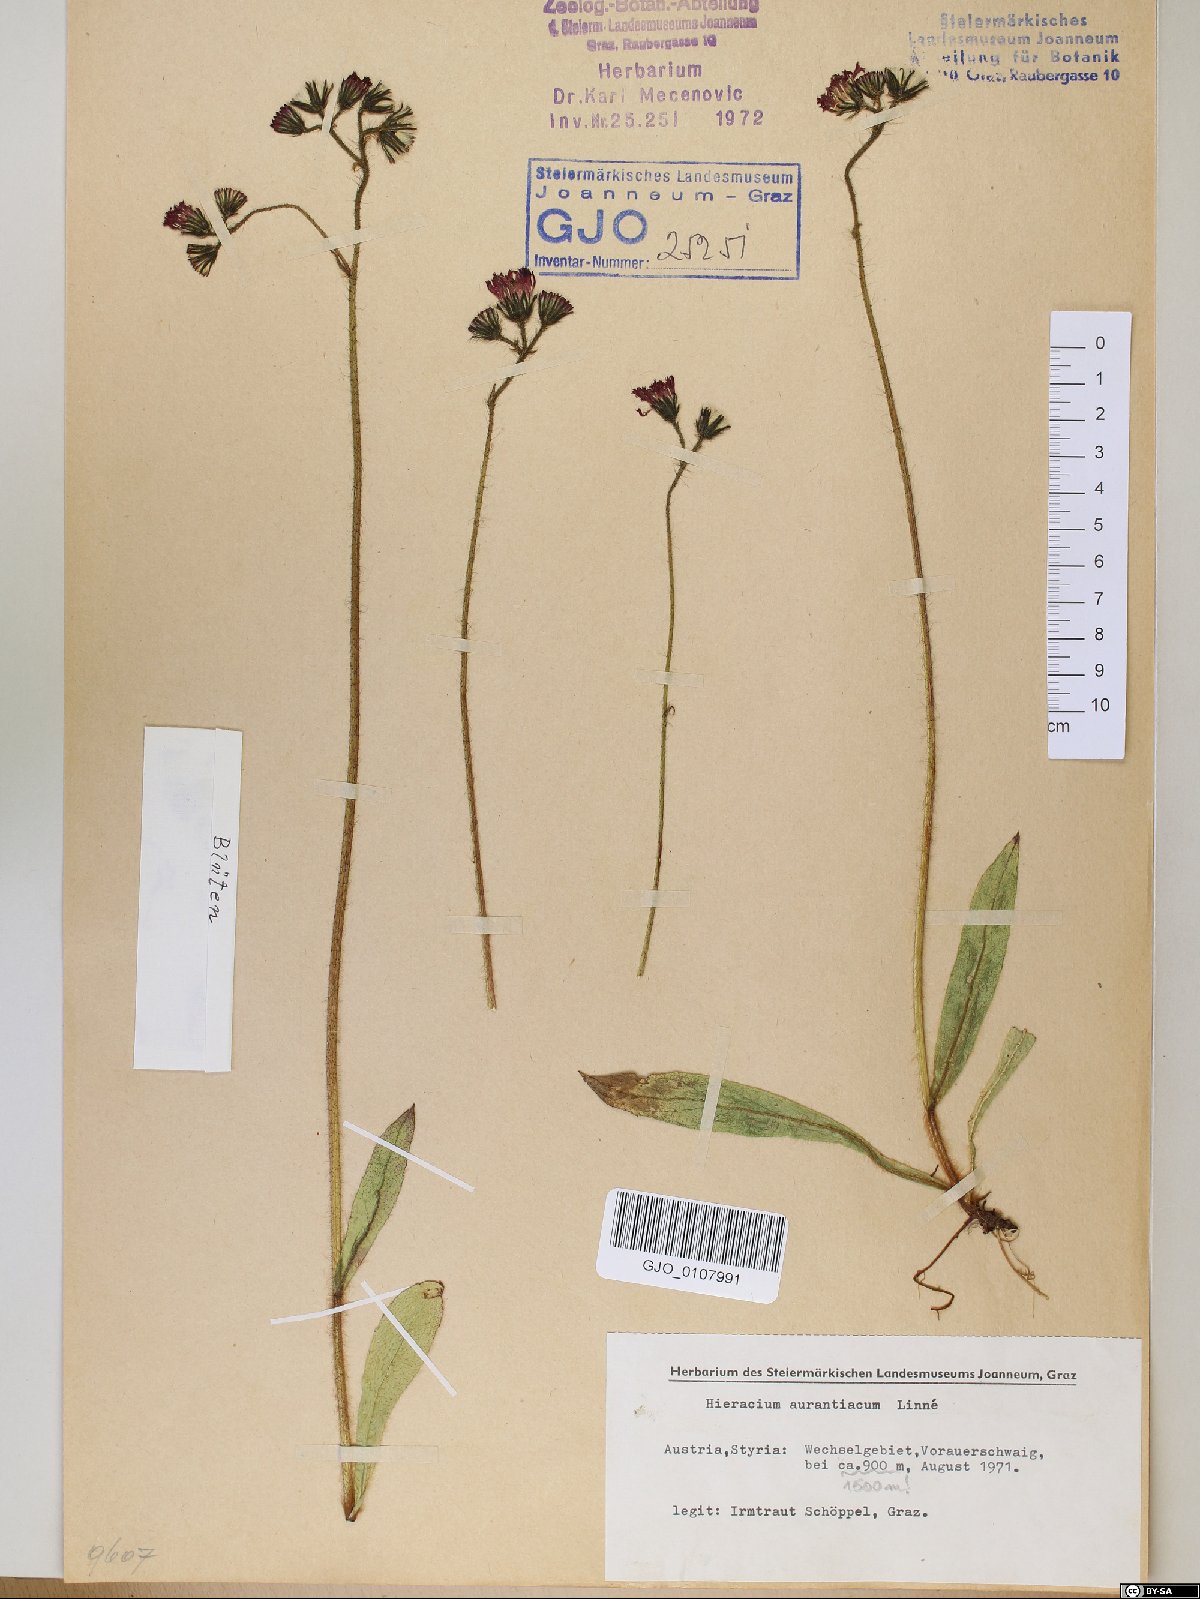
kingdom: Plantae
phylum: Tracheophyta
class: Magnoliopsida
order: Asterales
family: Asteraceae
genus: Pilosella
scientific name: Pilosella aurantiaca
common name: Fox-and-cubs
